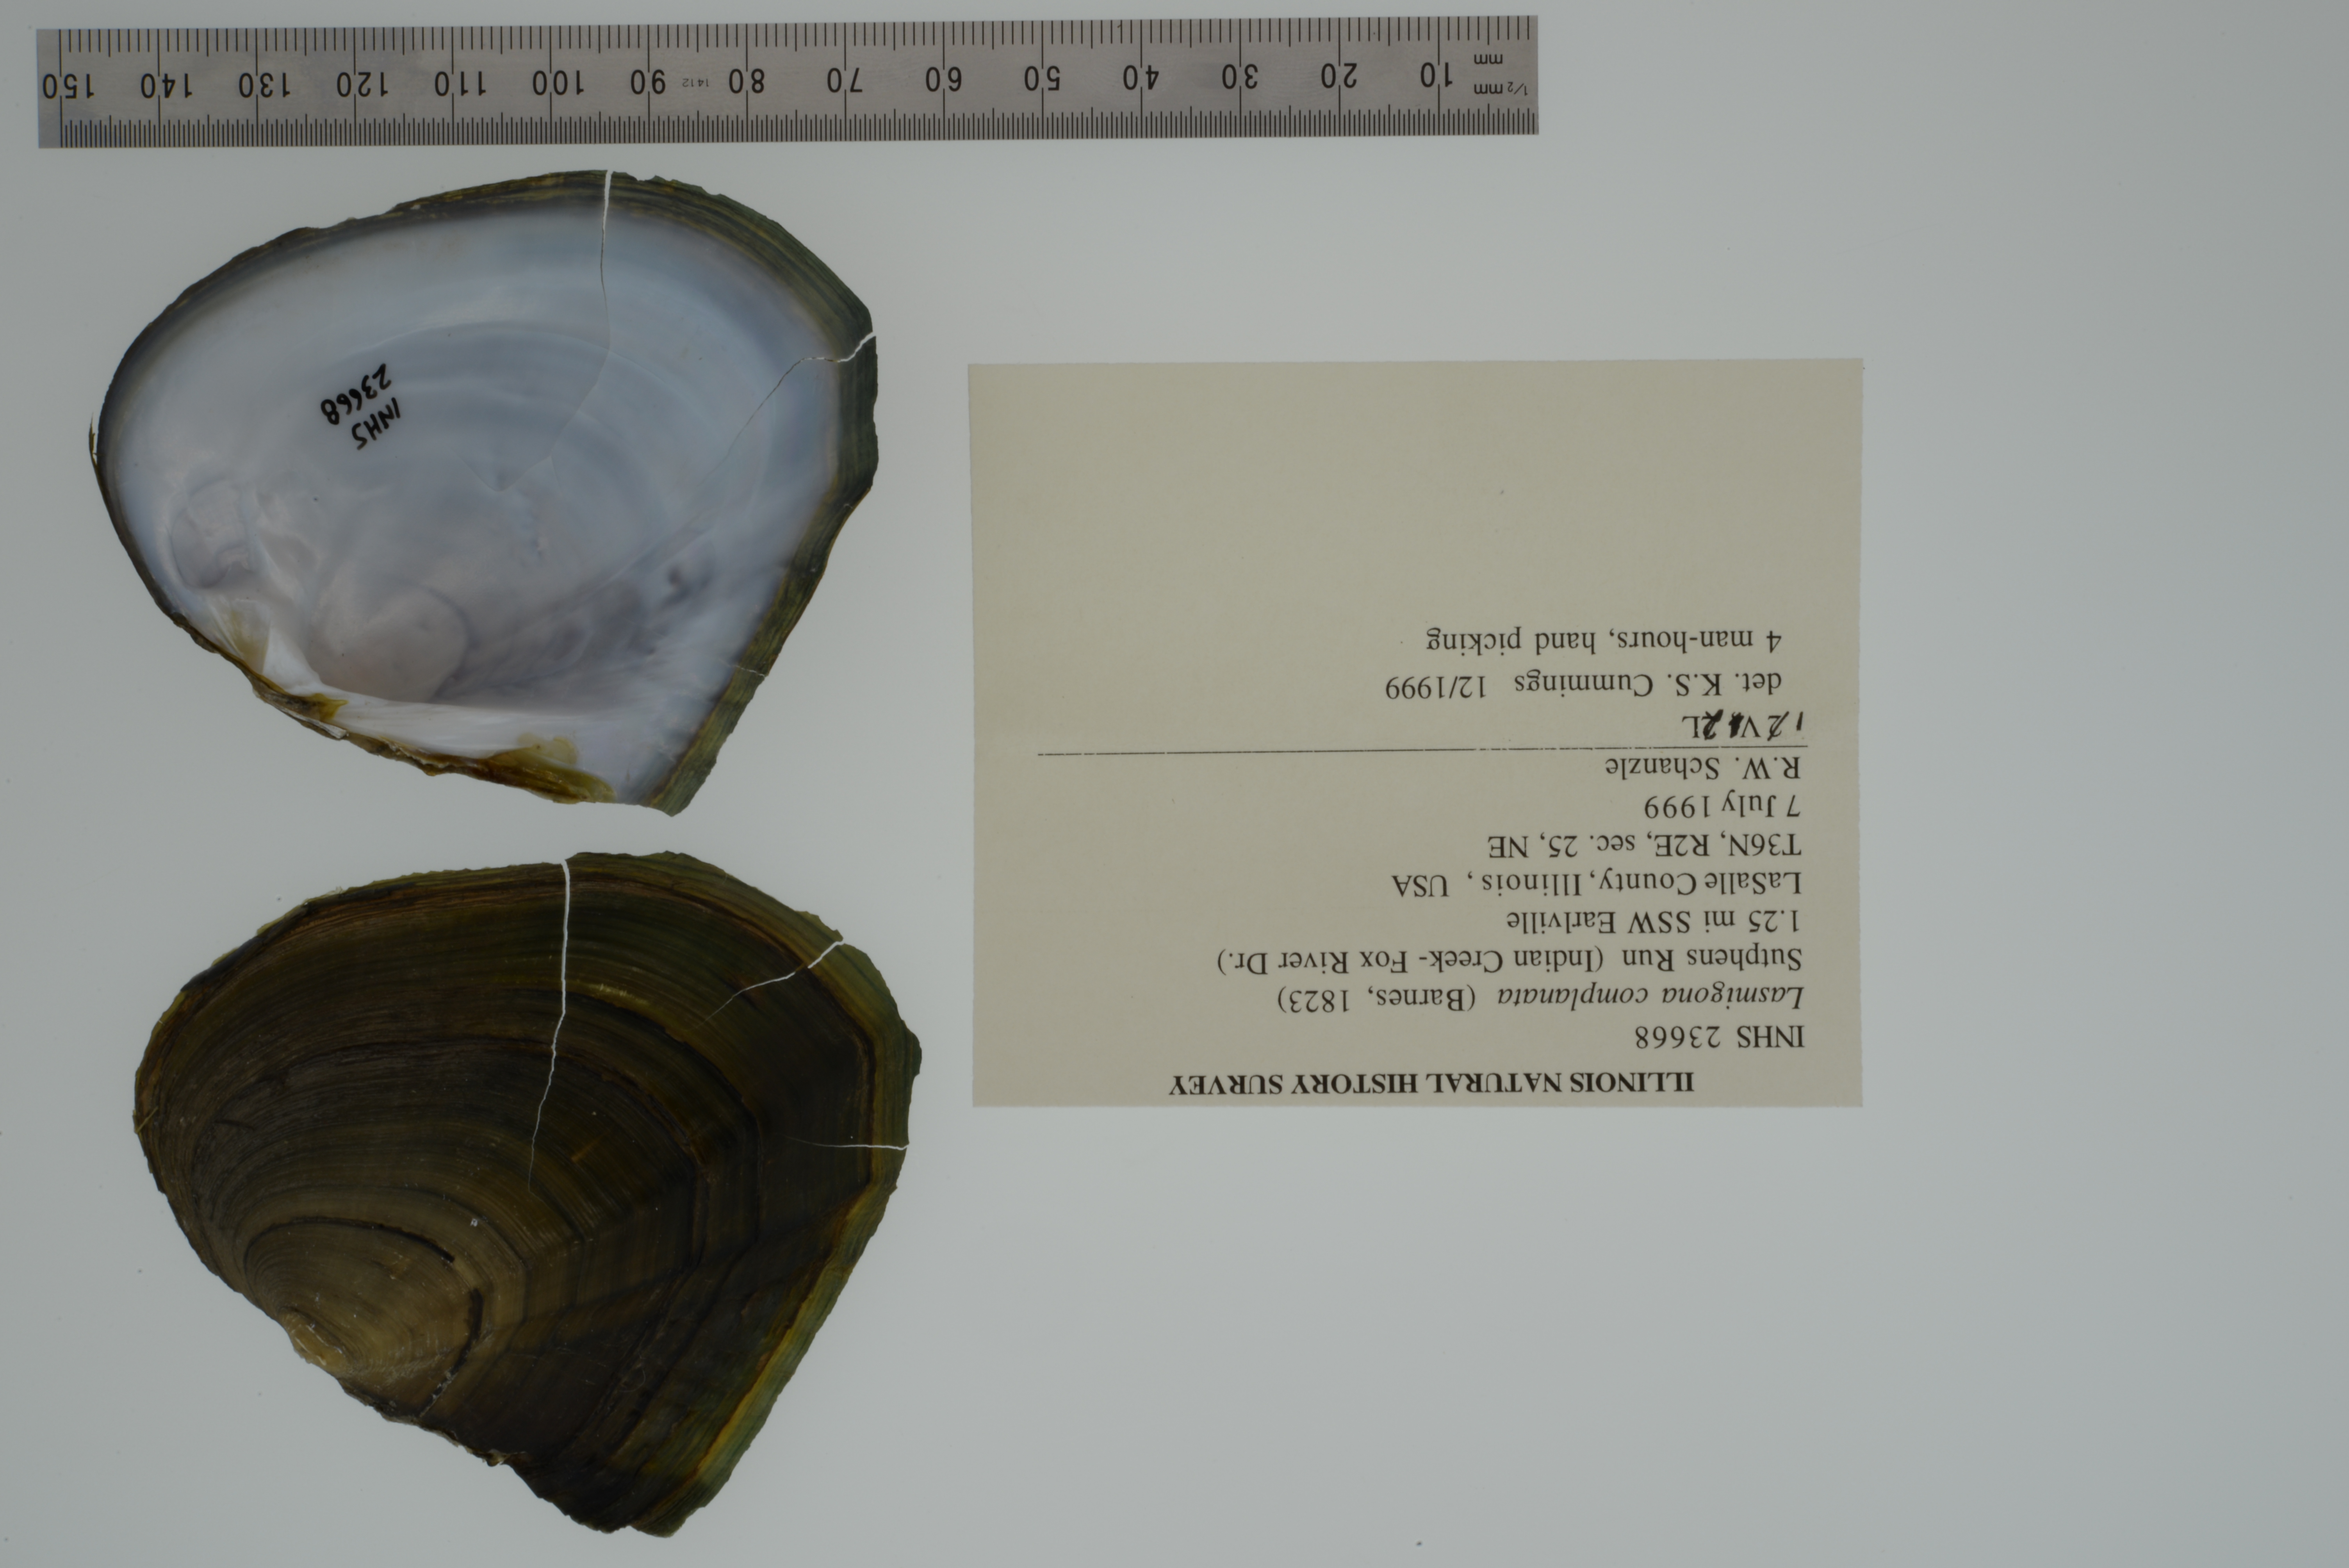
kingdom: Animalia
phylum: Mollusca
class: Bivalvia
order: Unionida
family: Unionidae
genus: Lasmigona
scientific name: Lasmigona complanata
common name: White heelsplitter
